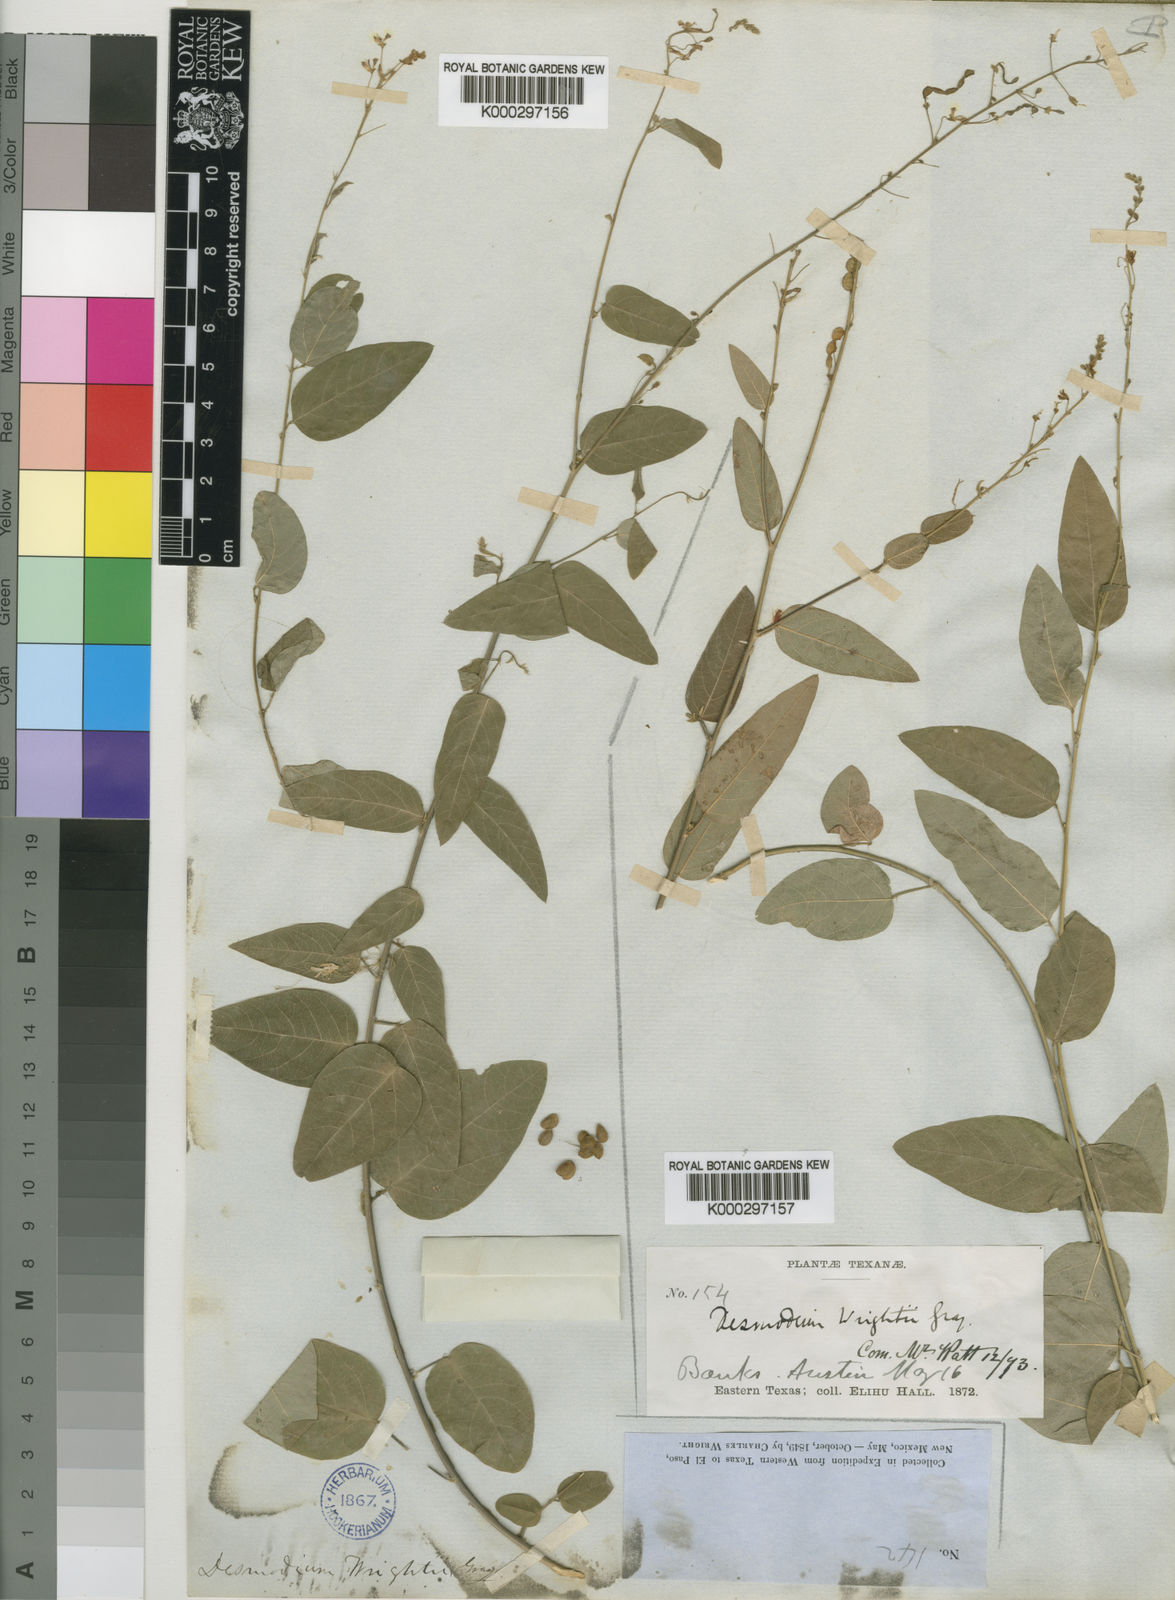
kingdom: Plantae
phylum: Tracheophyta
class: Magnoliopsida
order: Fabales
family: Fabaceae
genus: Desmodium
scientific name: Desmodium psilophyllum
